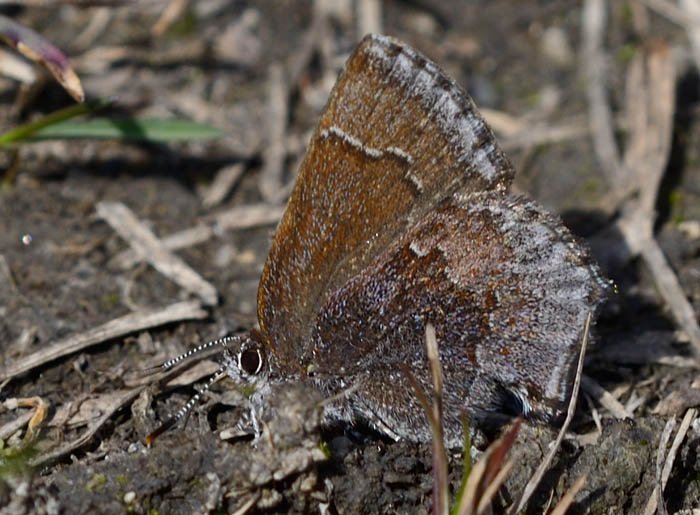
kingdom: Animalia
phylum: Arthropoda
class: Insecta
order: Lepidoptera
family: Lycaenidae
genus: Callophrys
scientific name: Callophrys polios
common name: Hoary Elfin
